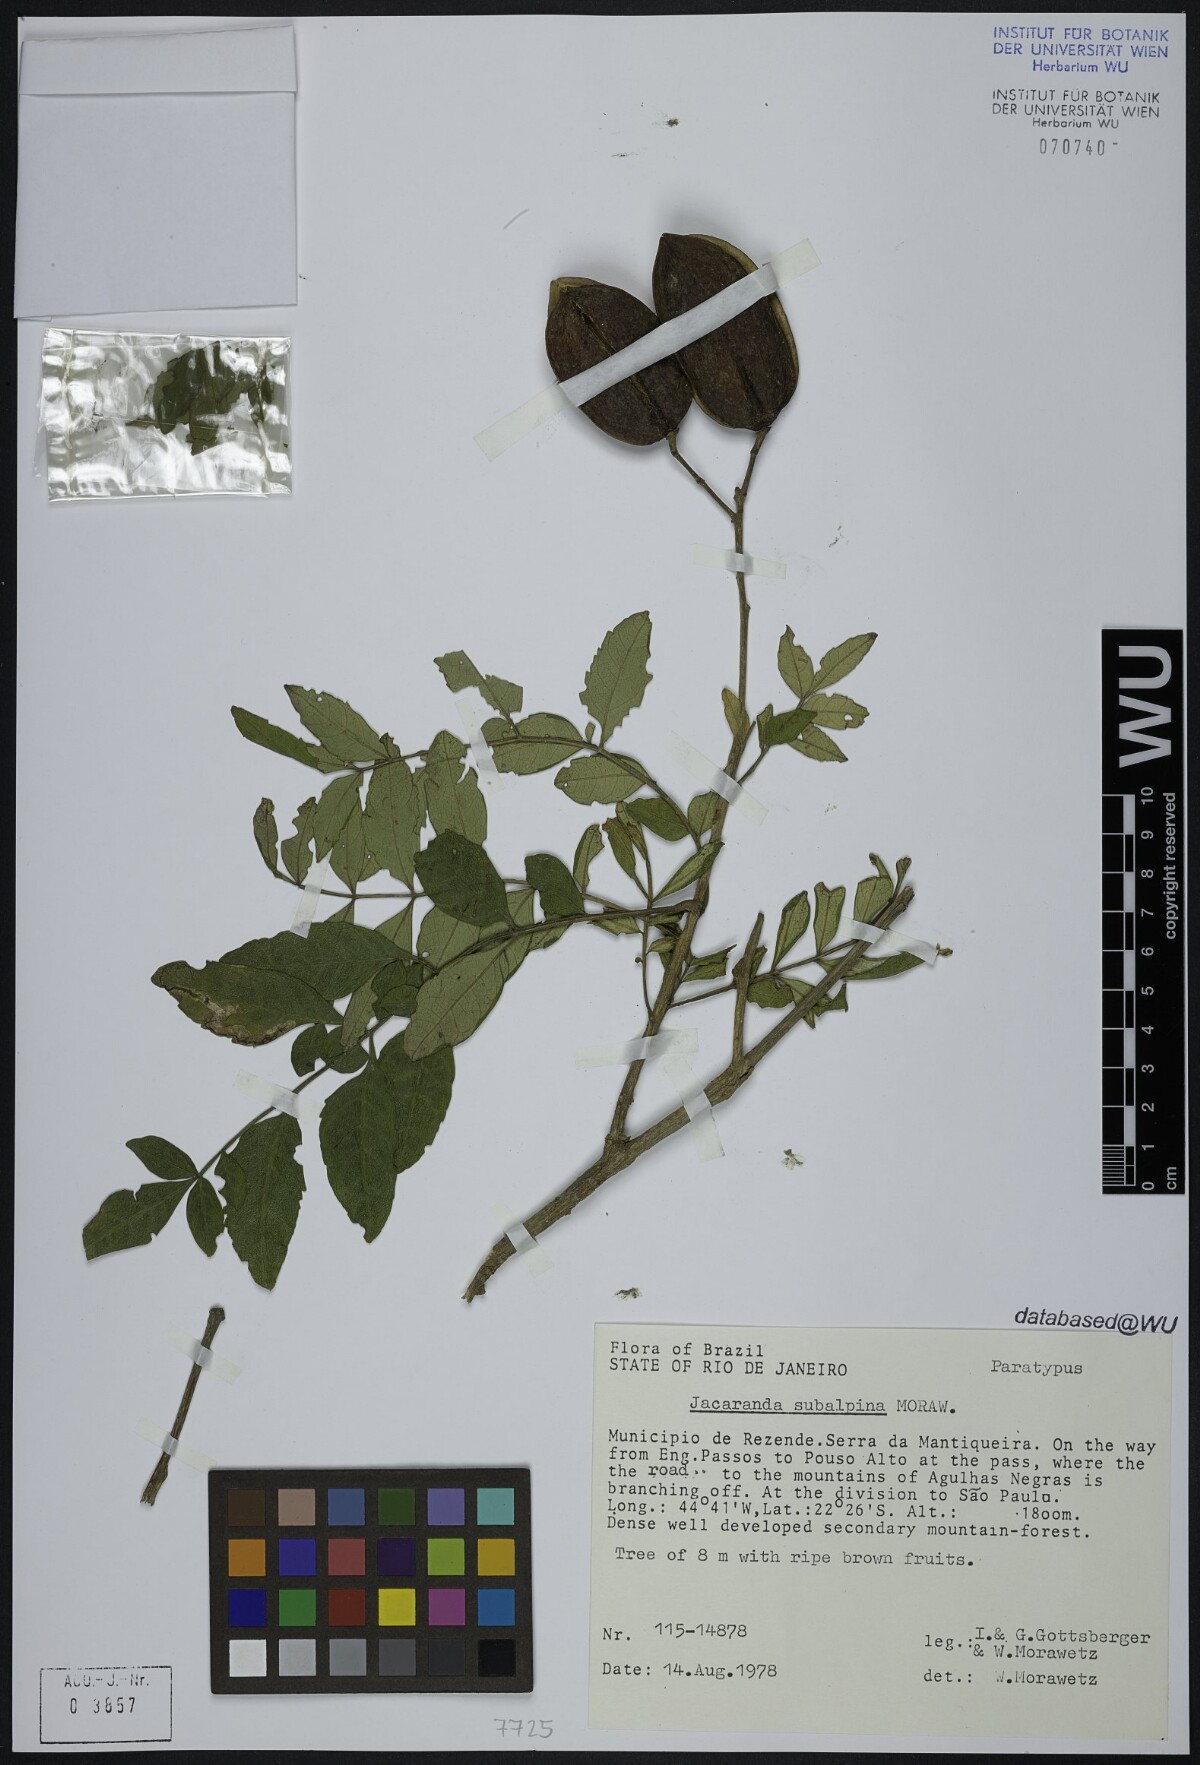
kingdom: Plantae
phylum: Tracheophyta
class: Magnoliopsida
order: Lamiales
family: Bignoniaceae
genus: Jacaranda
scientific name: Jacaranda subalpina
